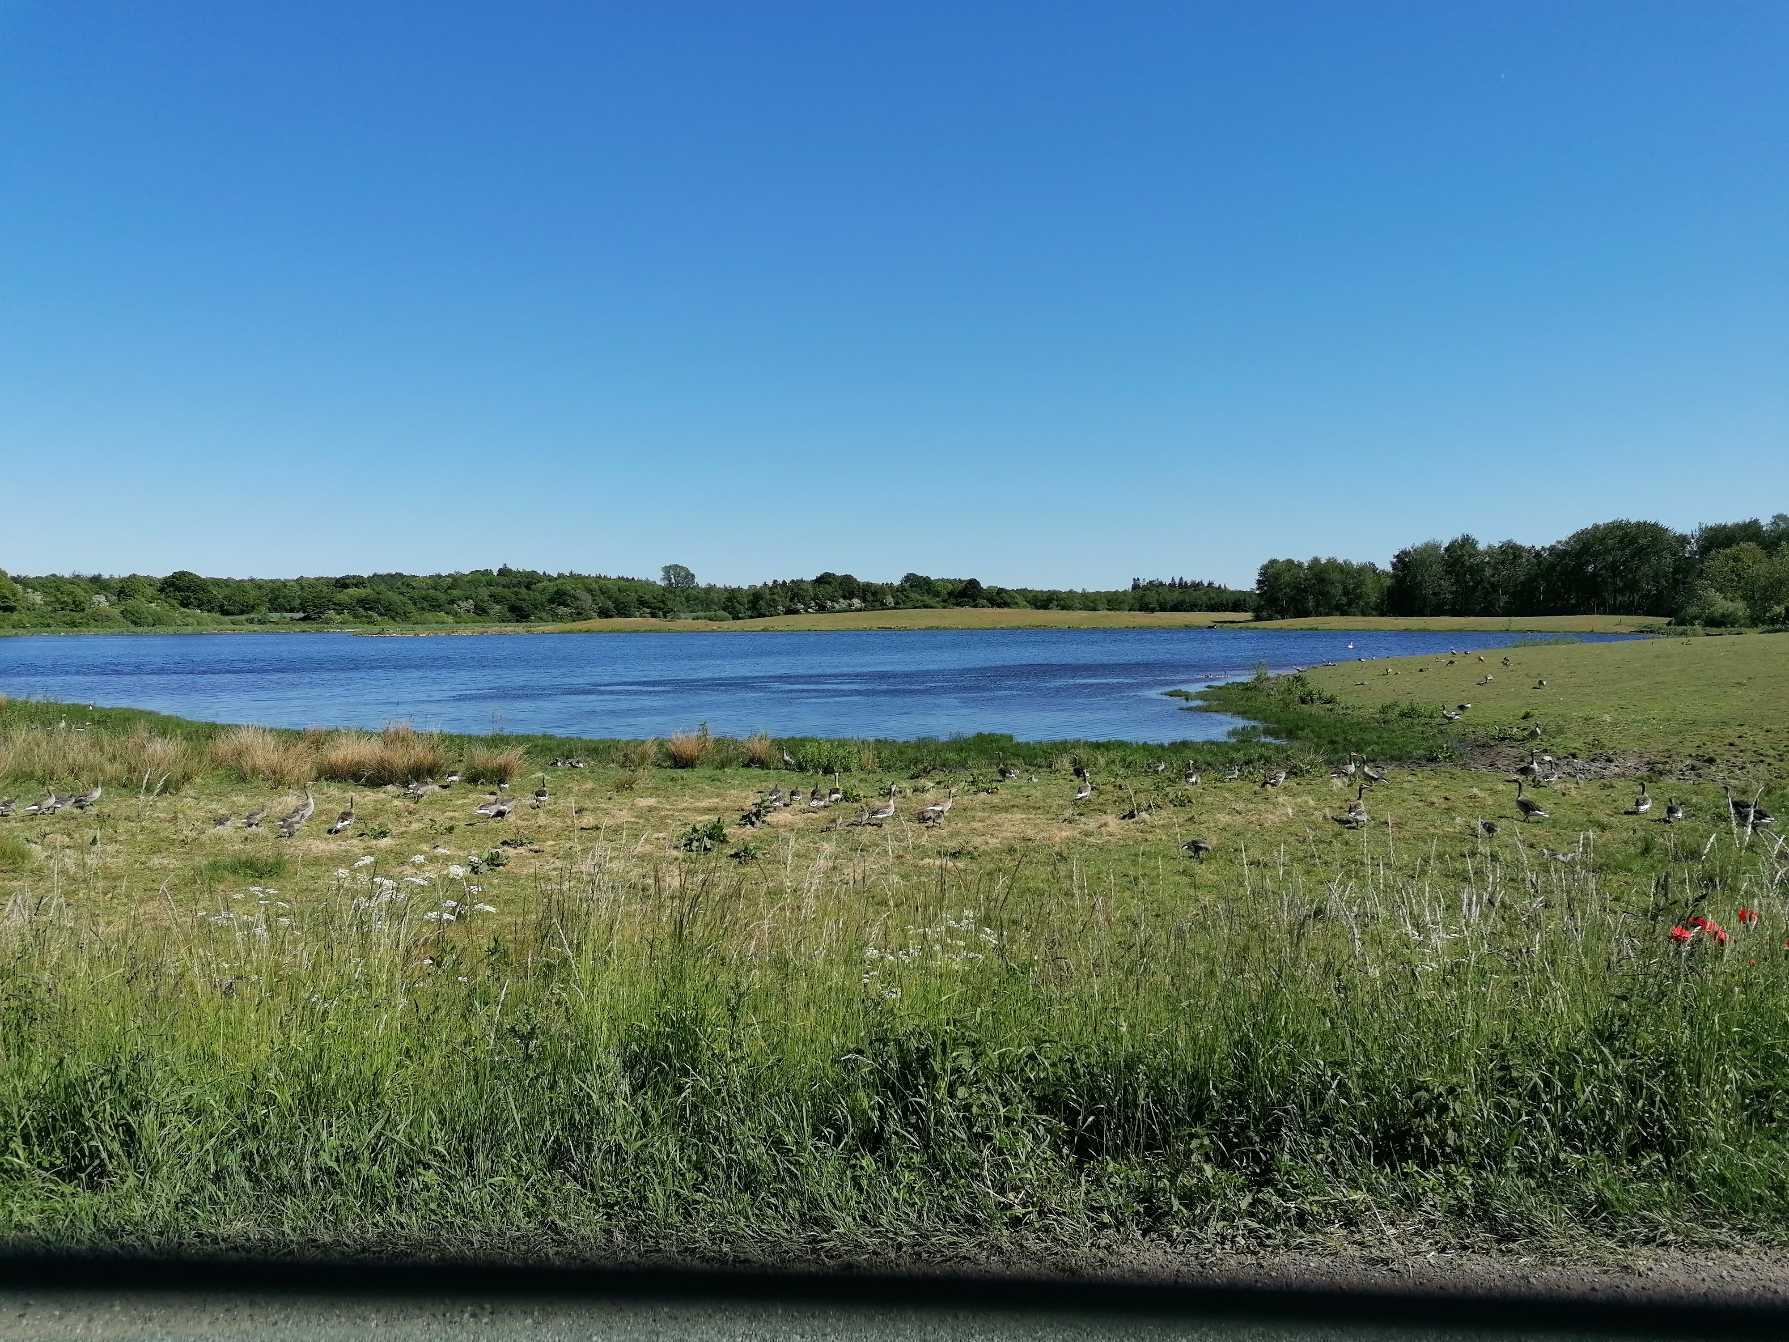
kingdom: Animalia
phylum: Chordata
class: Aves
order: Anseriformes
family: Anatidae
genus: Anser
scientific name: Anser anser
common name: Grågås
